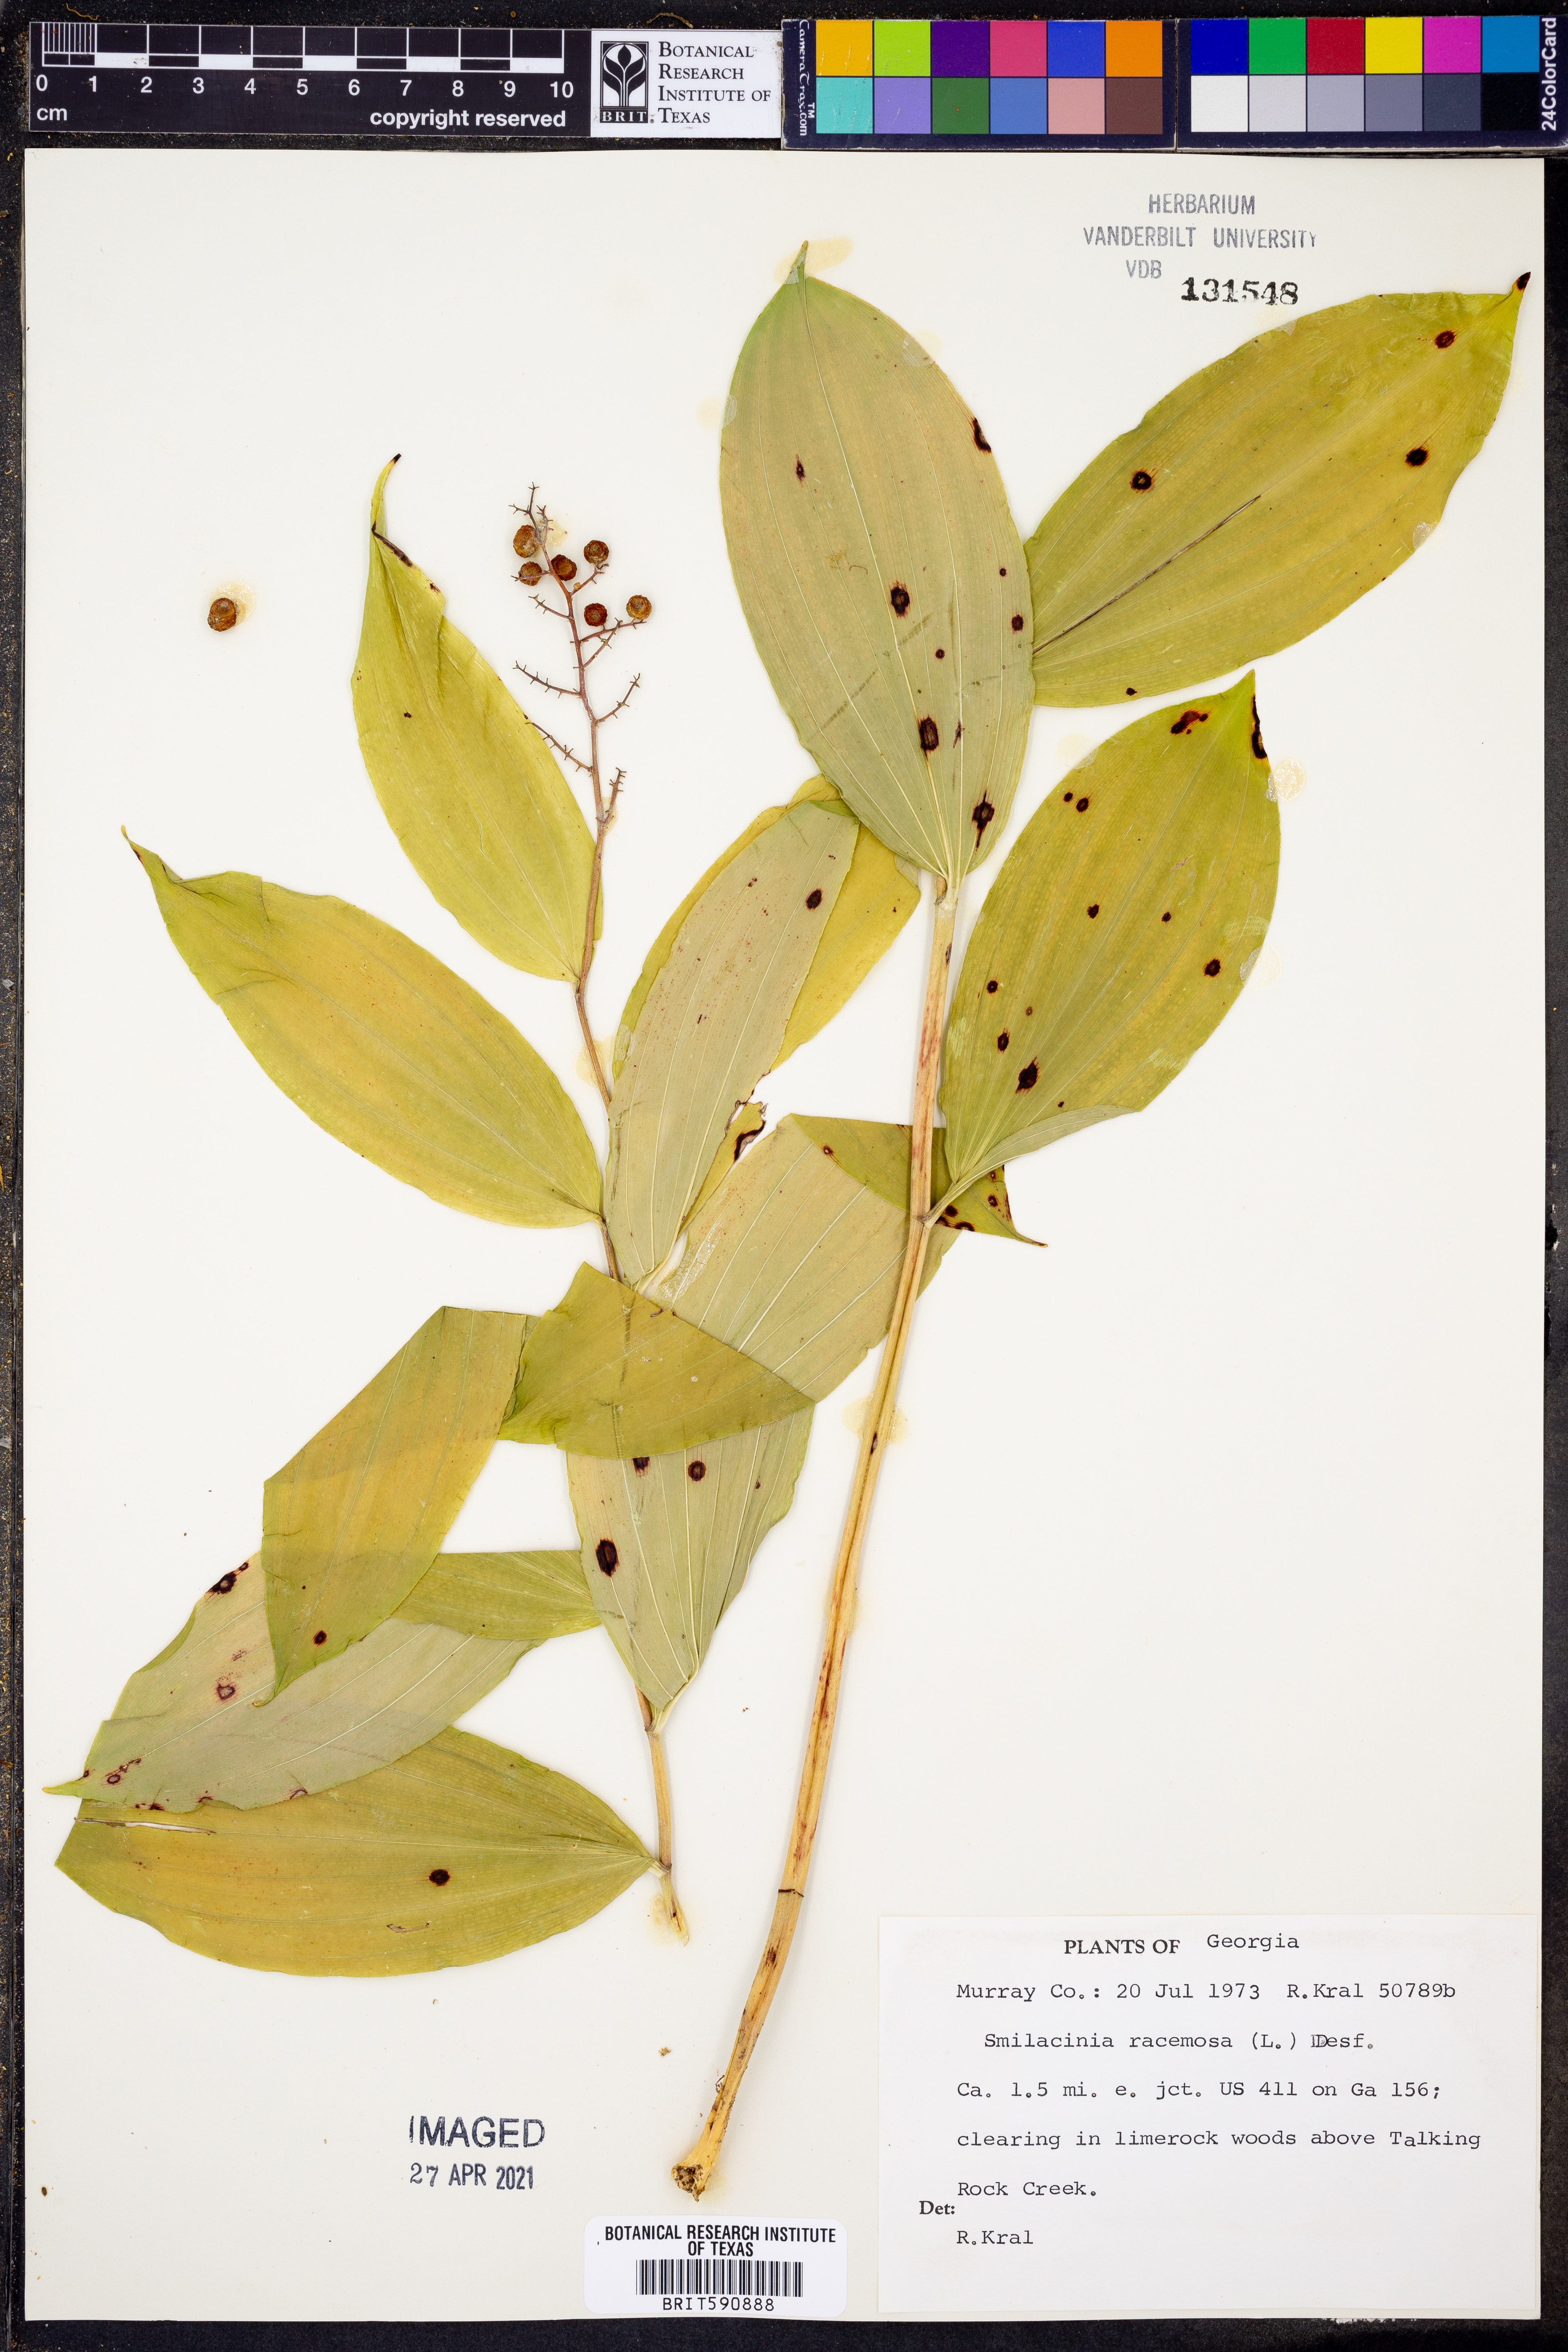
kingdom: Plantae
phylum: Tracheophyta
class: Liliopsida
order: Asparagales
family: Asparagaceae
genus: Maianthemum
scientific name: Maianthemum racemosum
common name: False spikenard
